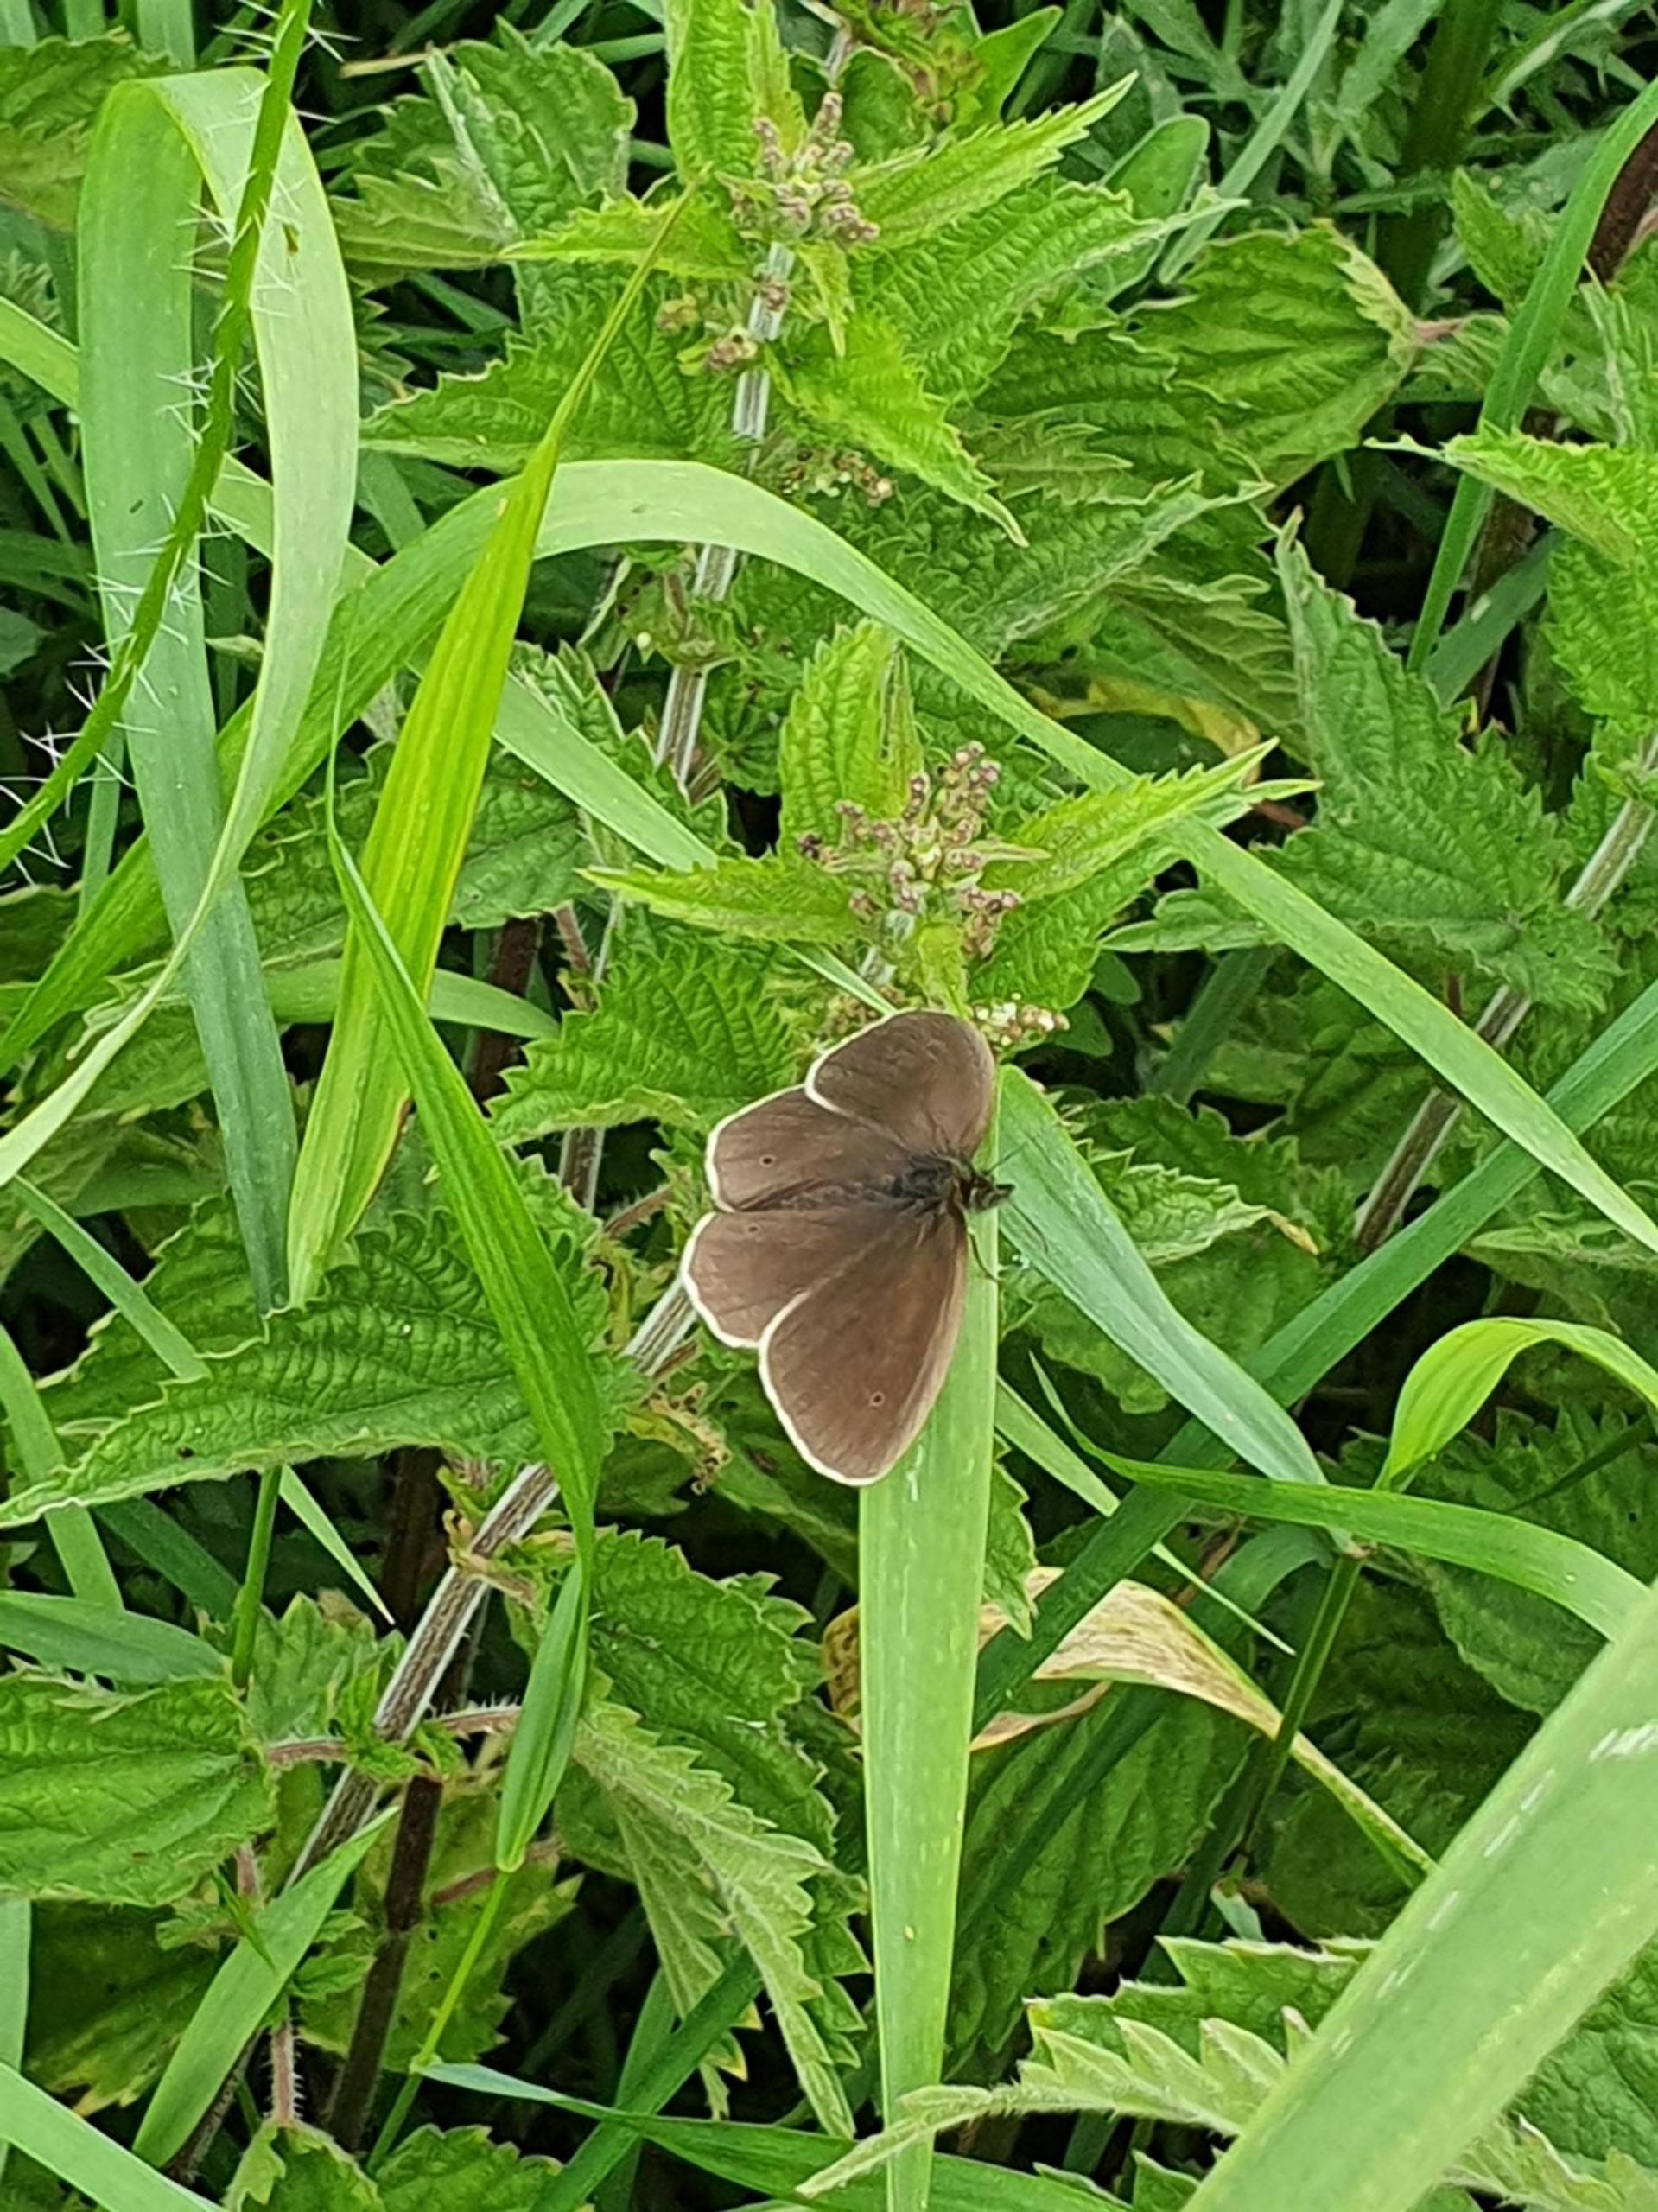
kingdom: Animalia
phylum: Arthropoda
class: Insecta
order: Lepidoptera
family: Nymphalidae
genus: Aphantopus
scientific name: Aphantopus hyperantus
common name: Engrandøje
